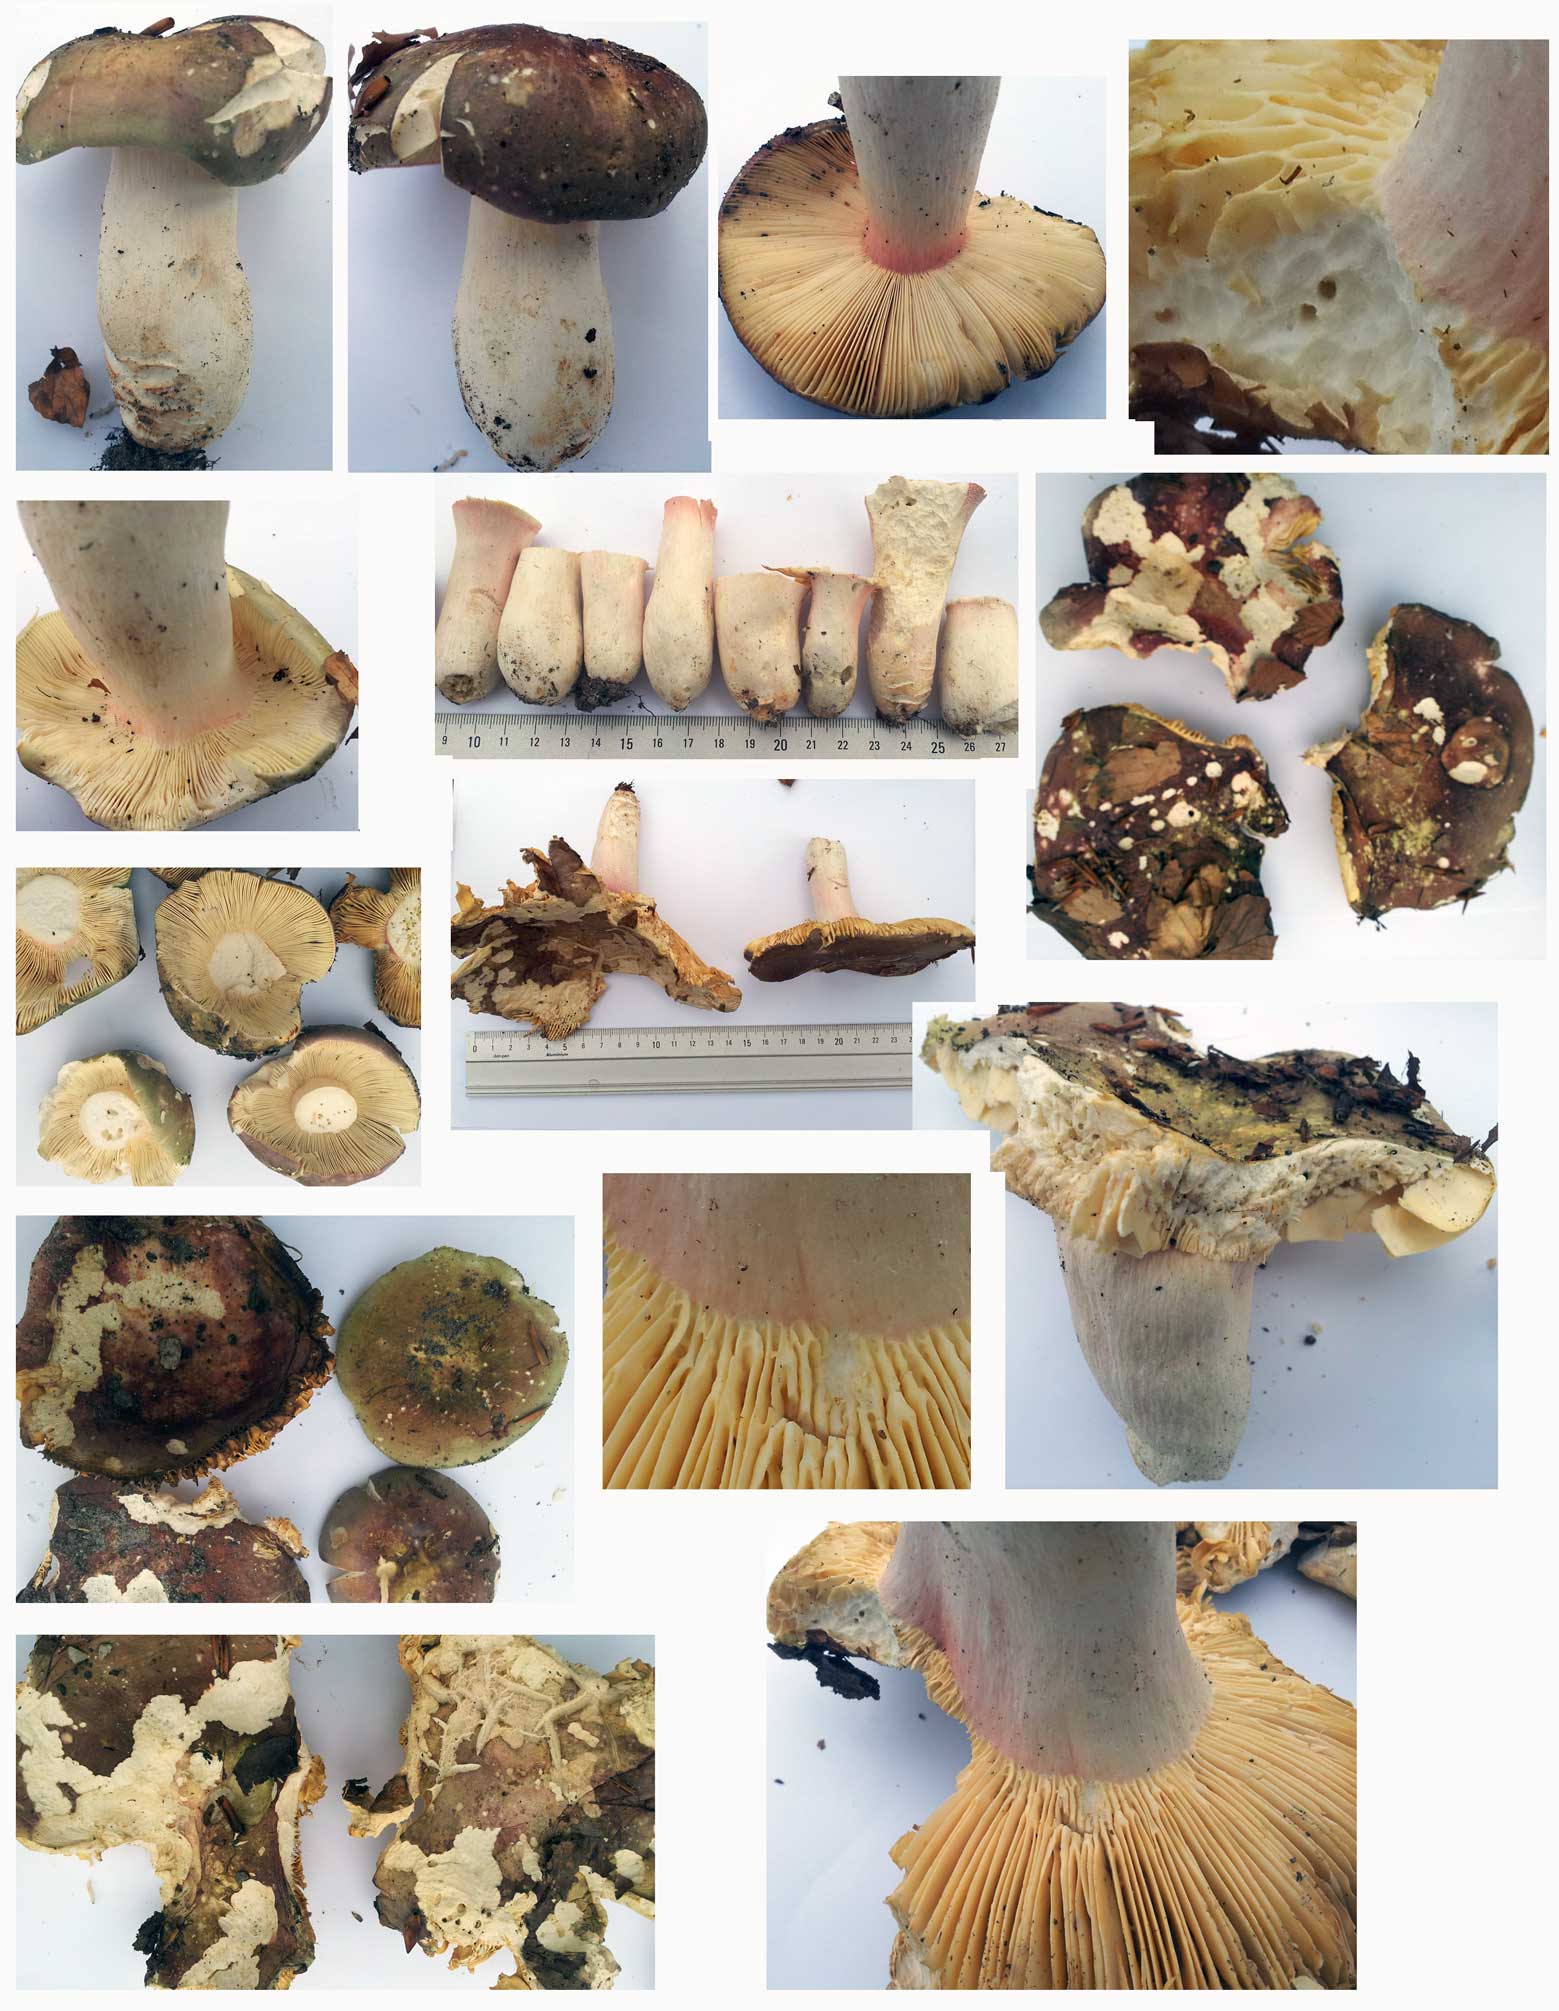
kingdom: Fungi
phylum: Basidiomycota
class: Agaricomycetes
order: Russulales
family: Russulaceae
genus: Russula
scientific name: Russula olivacea
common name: stor skørhat
